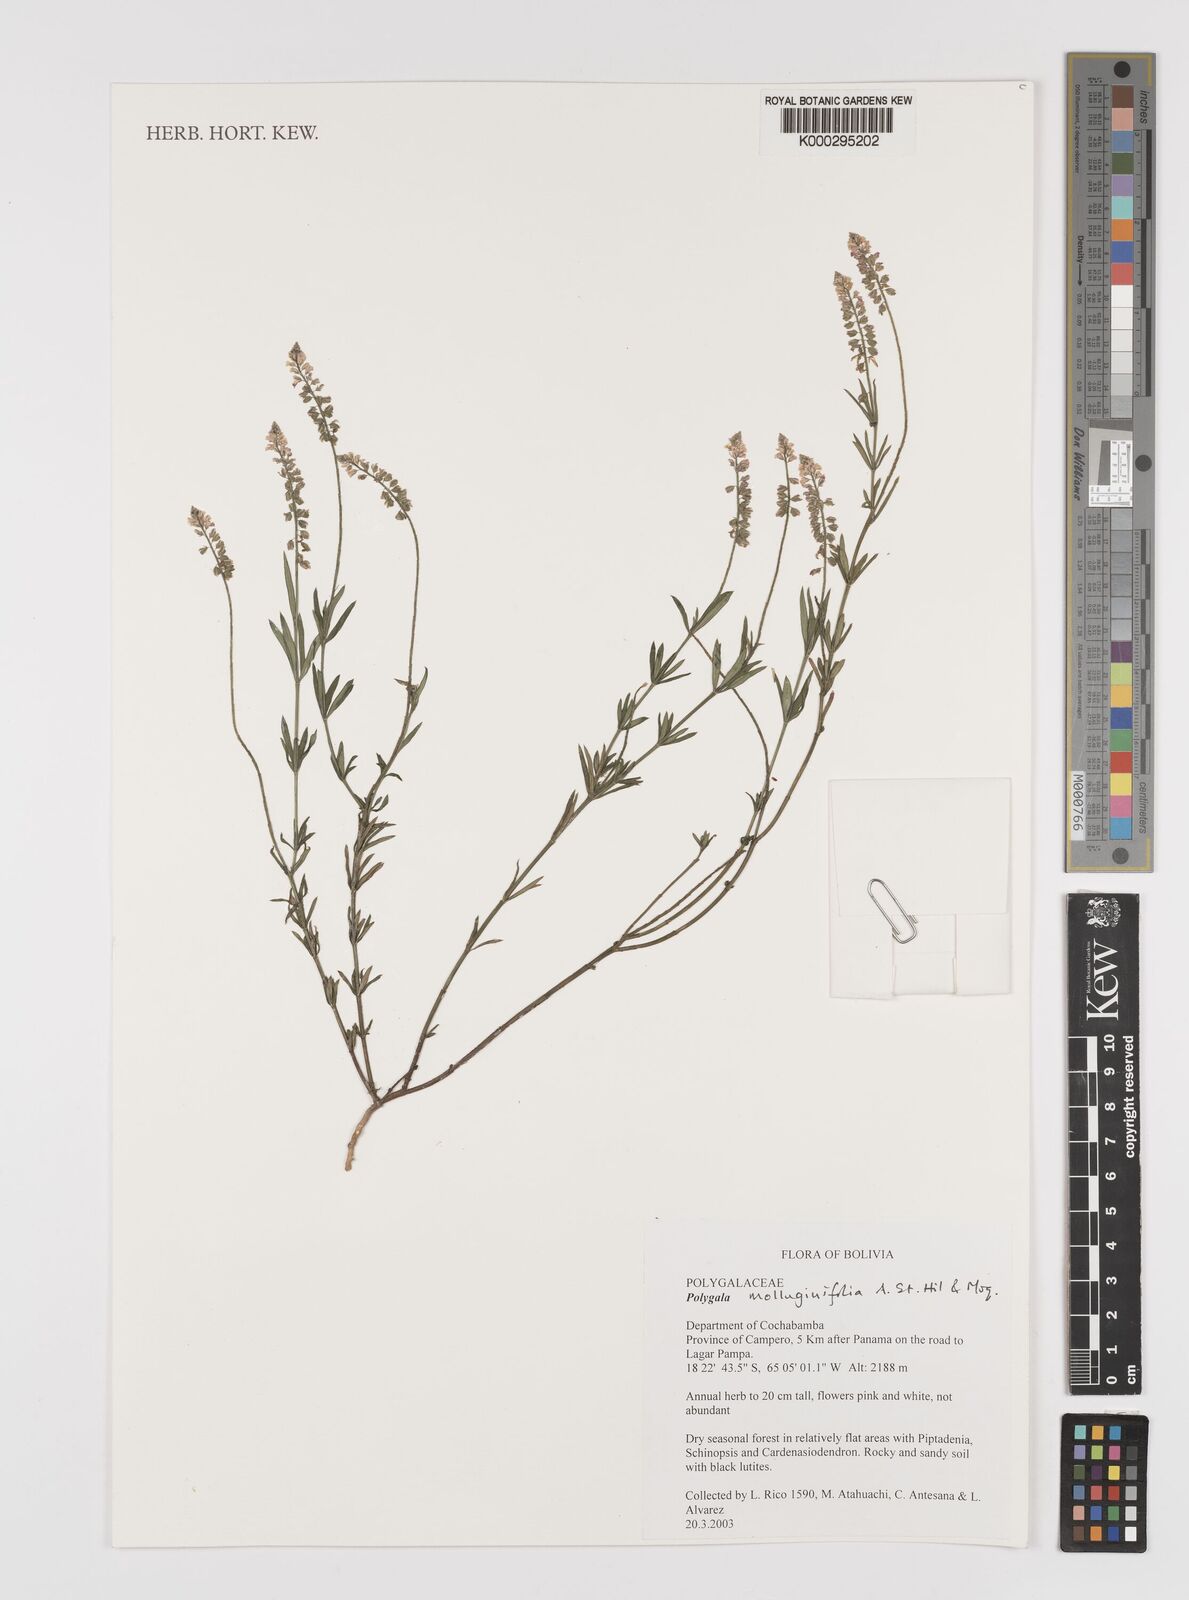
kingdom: Plantae
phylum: Tracheophyta
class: Magnoliopsida
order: Fabales
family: Polygalaceae
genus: Polygala
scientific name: Polygala molluginifolia
